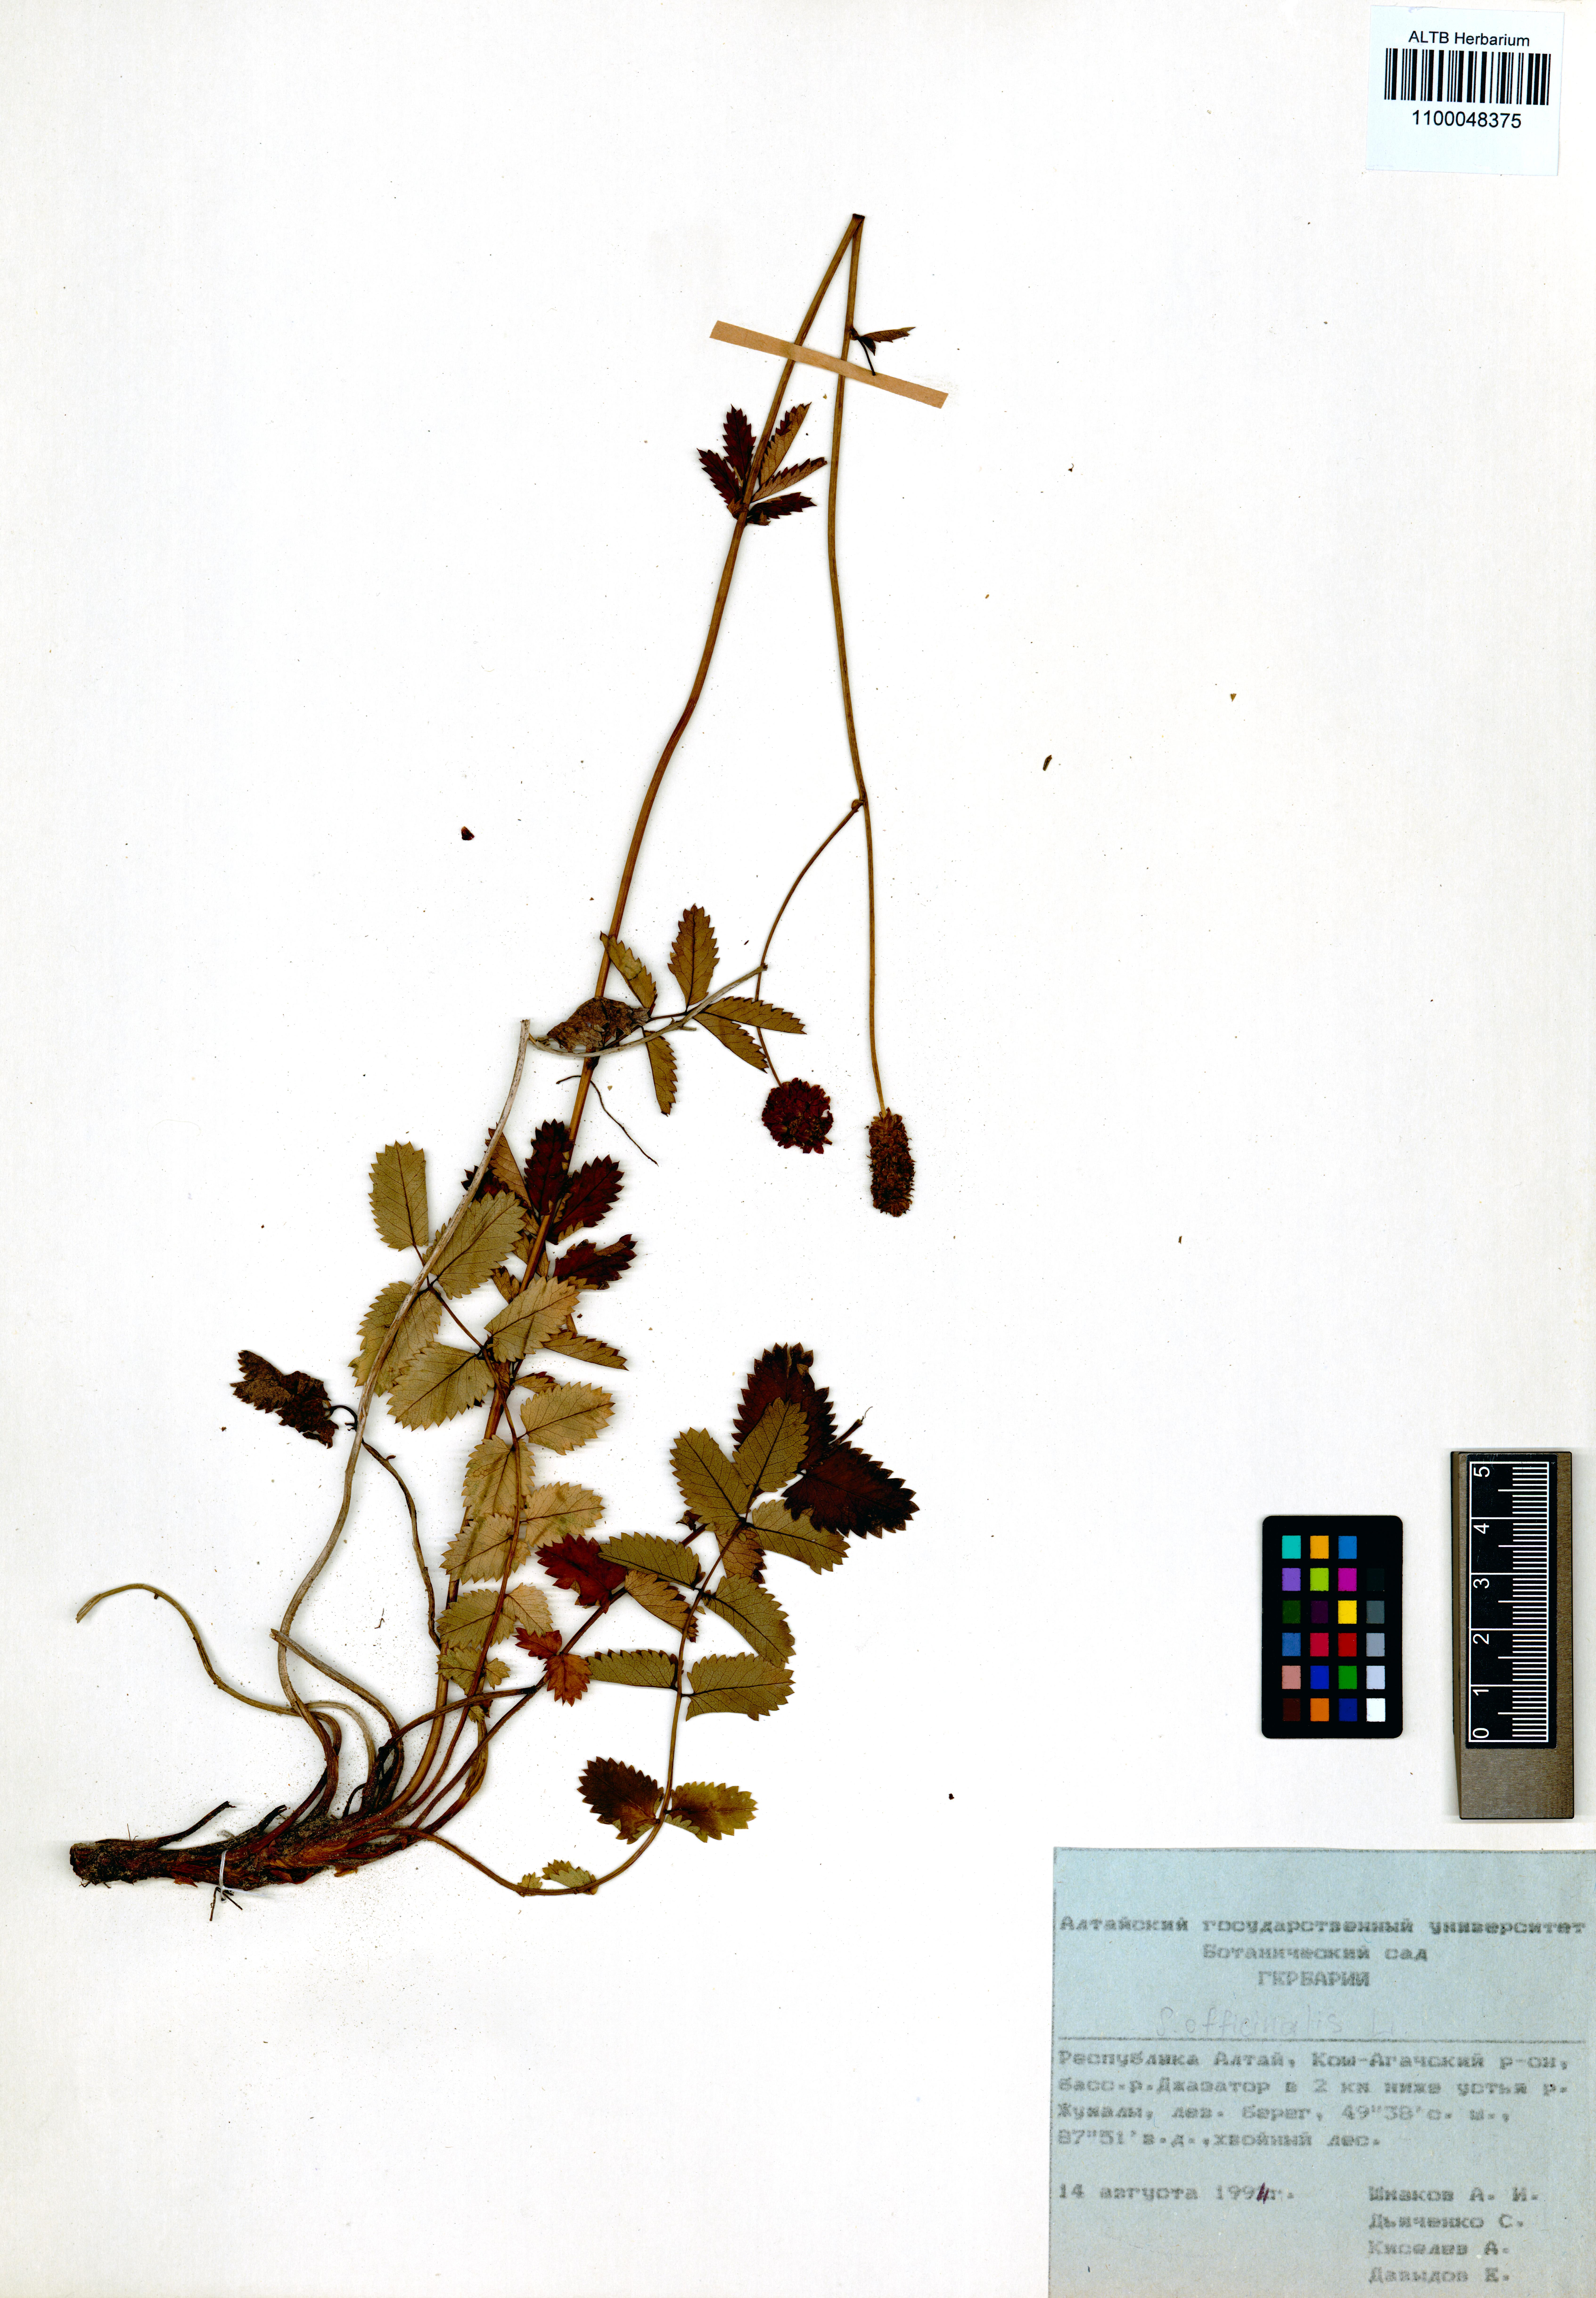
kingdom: Plantae
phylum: Tracheophyta
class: Magnoliopsida
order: Rosales
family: Rosaceae
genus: Sanguisorba
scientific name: Sanguisorba officinalis
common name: Great burnet
